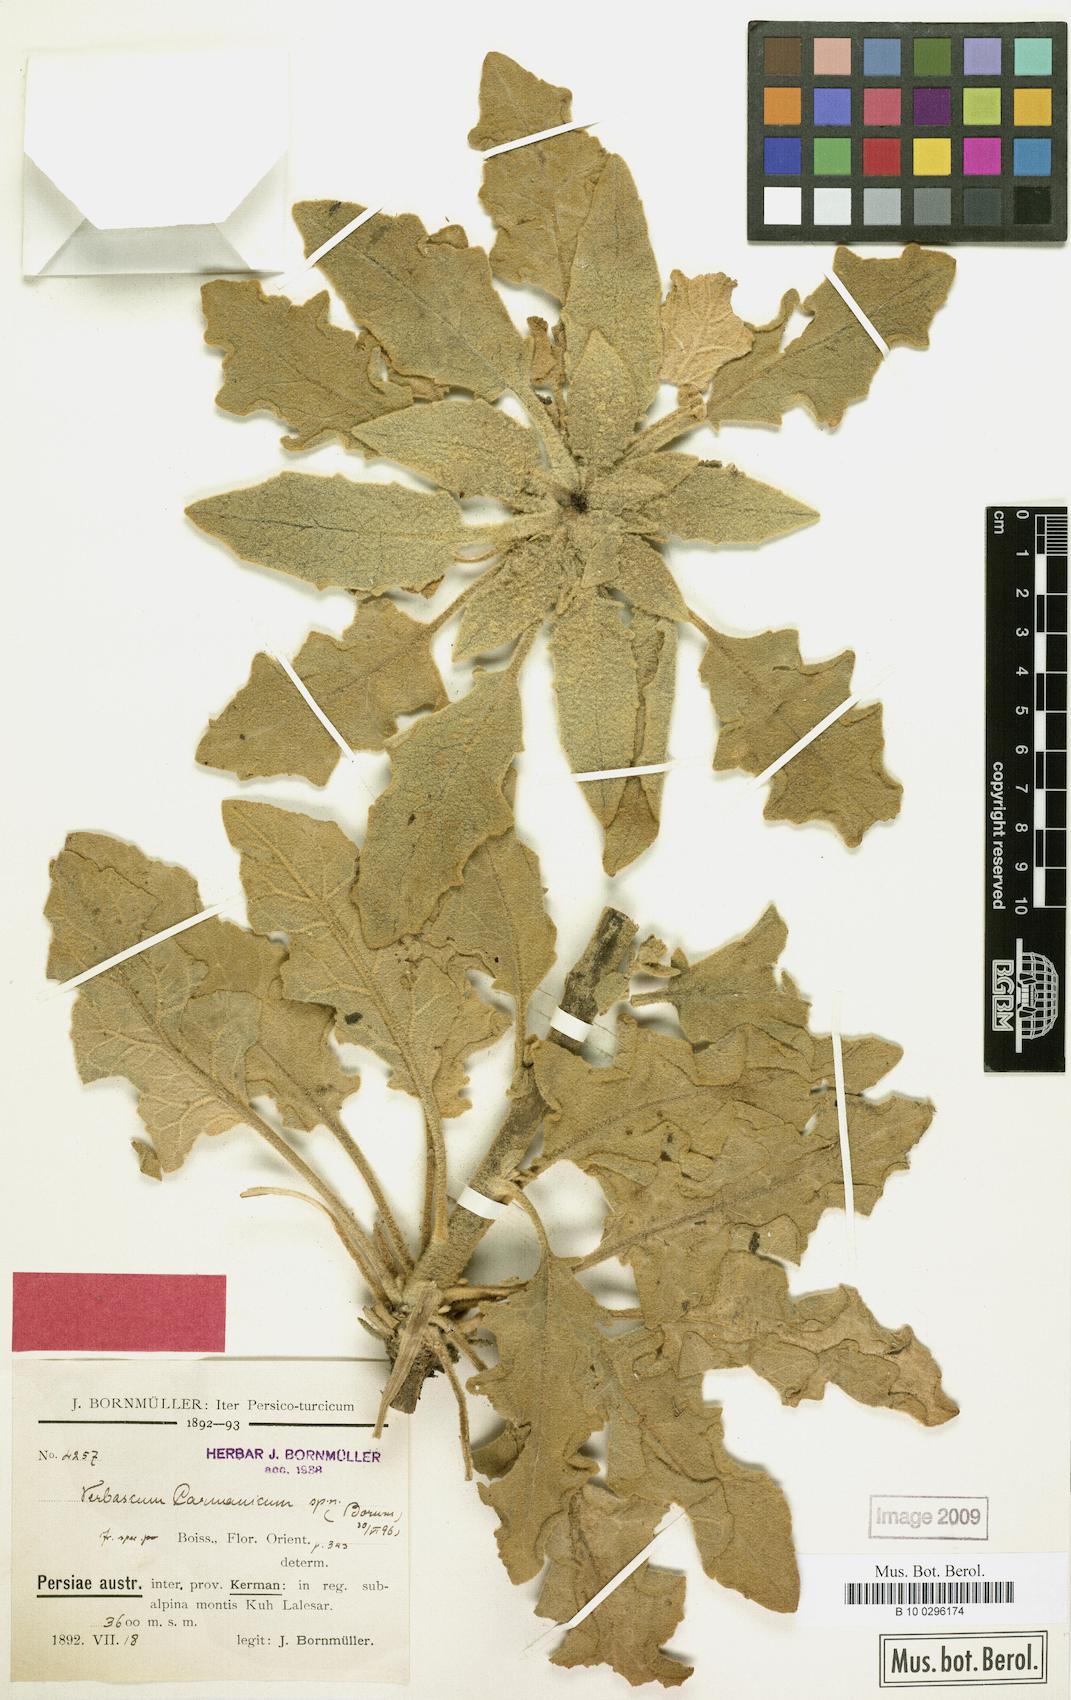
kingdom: Plantae
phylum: Tracheophyta
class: Magnoliopsida
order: Lamiales
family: Scrophulariaceae
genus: Verbascum
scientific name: Verbascum carmanicum
